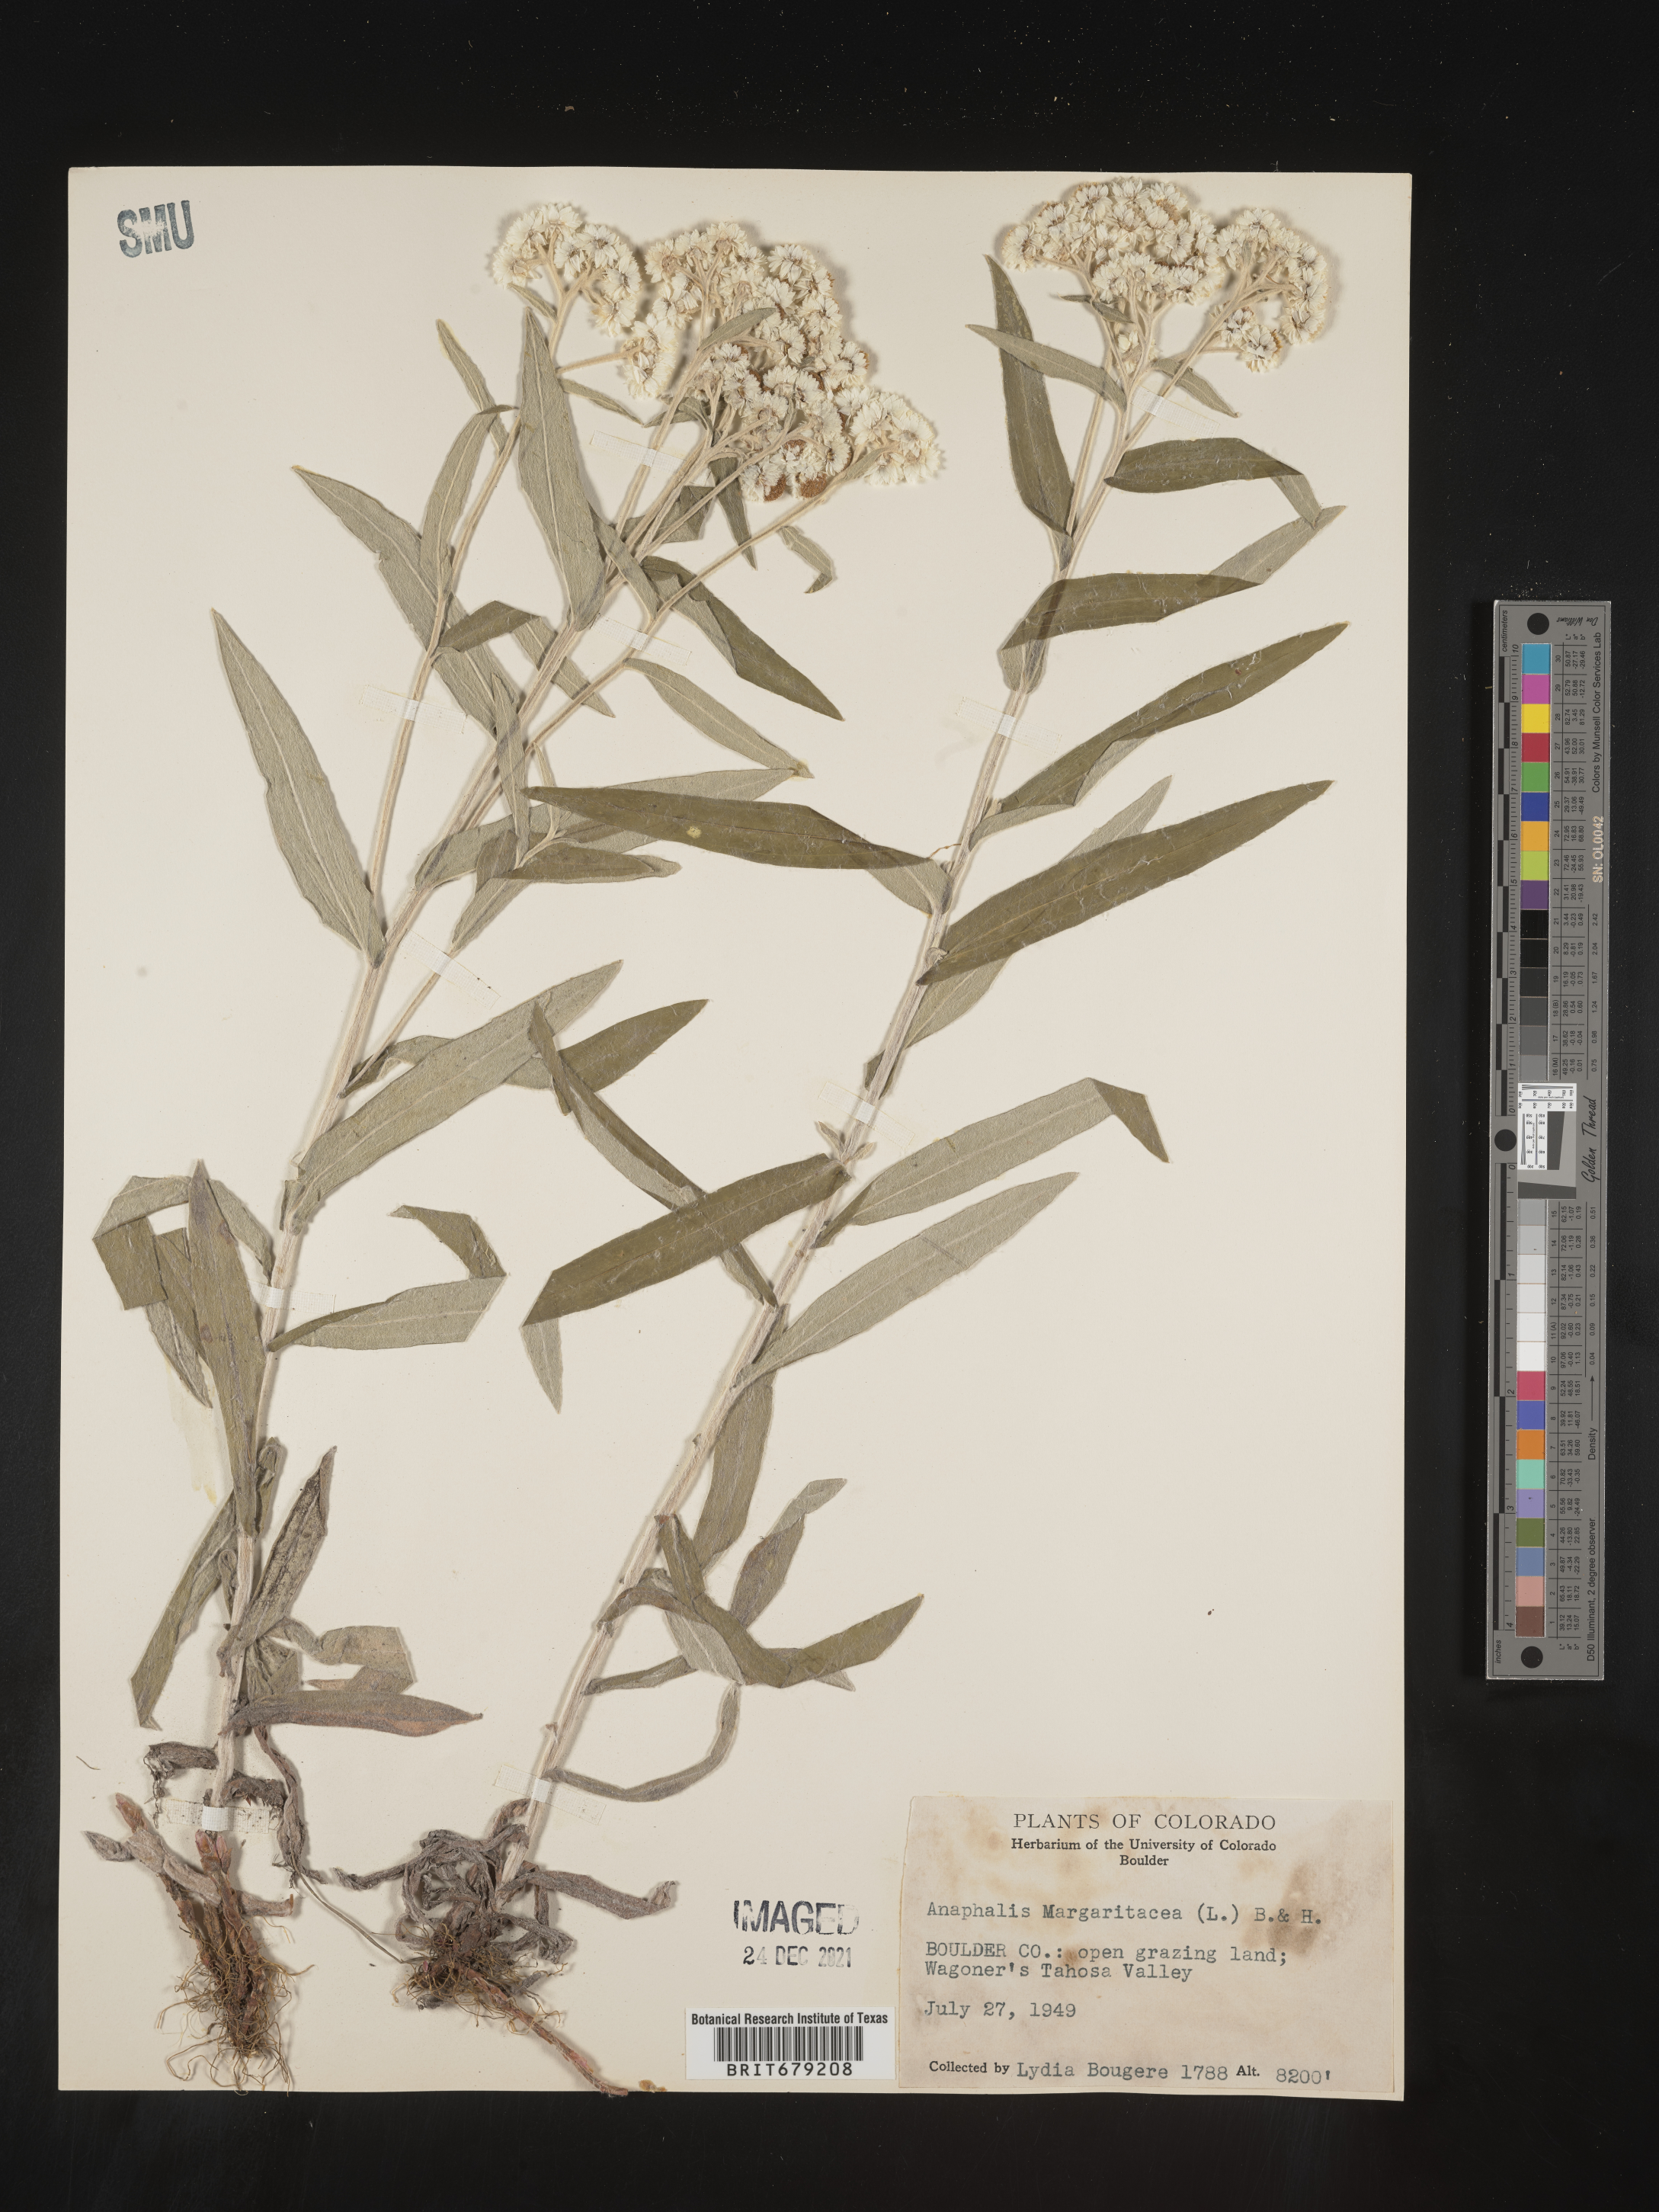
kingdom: Plantae
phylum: Tracheophyta
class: Magnoliopsida
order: Asterales
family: Asteraceae
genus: Anaphalis
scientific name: Anaphalis margaritacea
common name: Pearly everlasting
